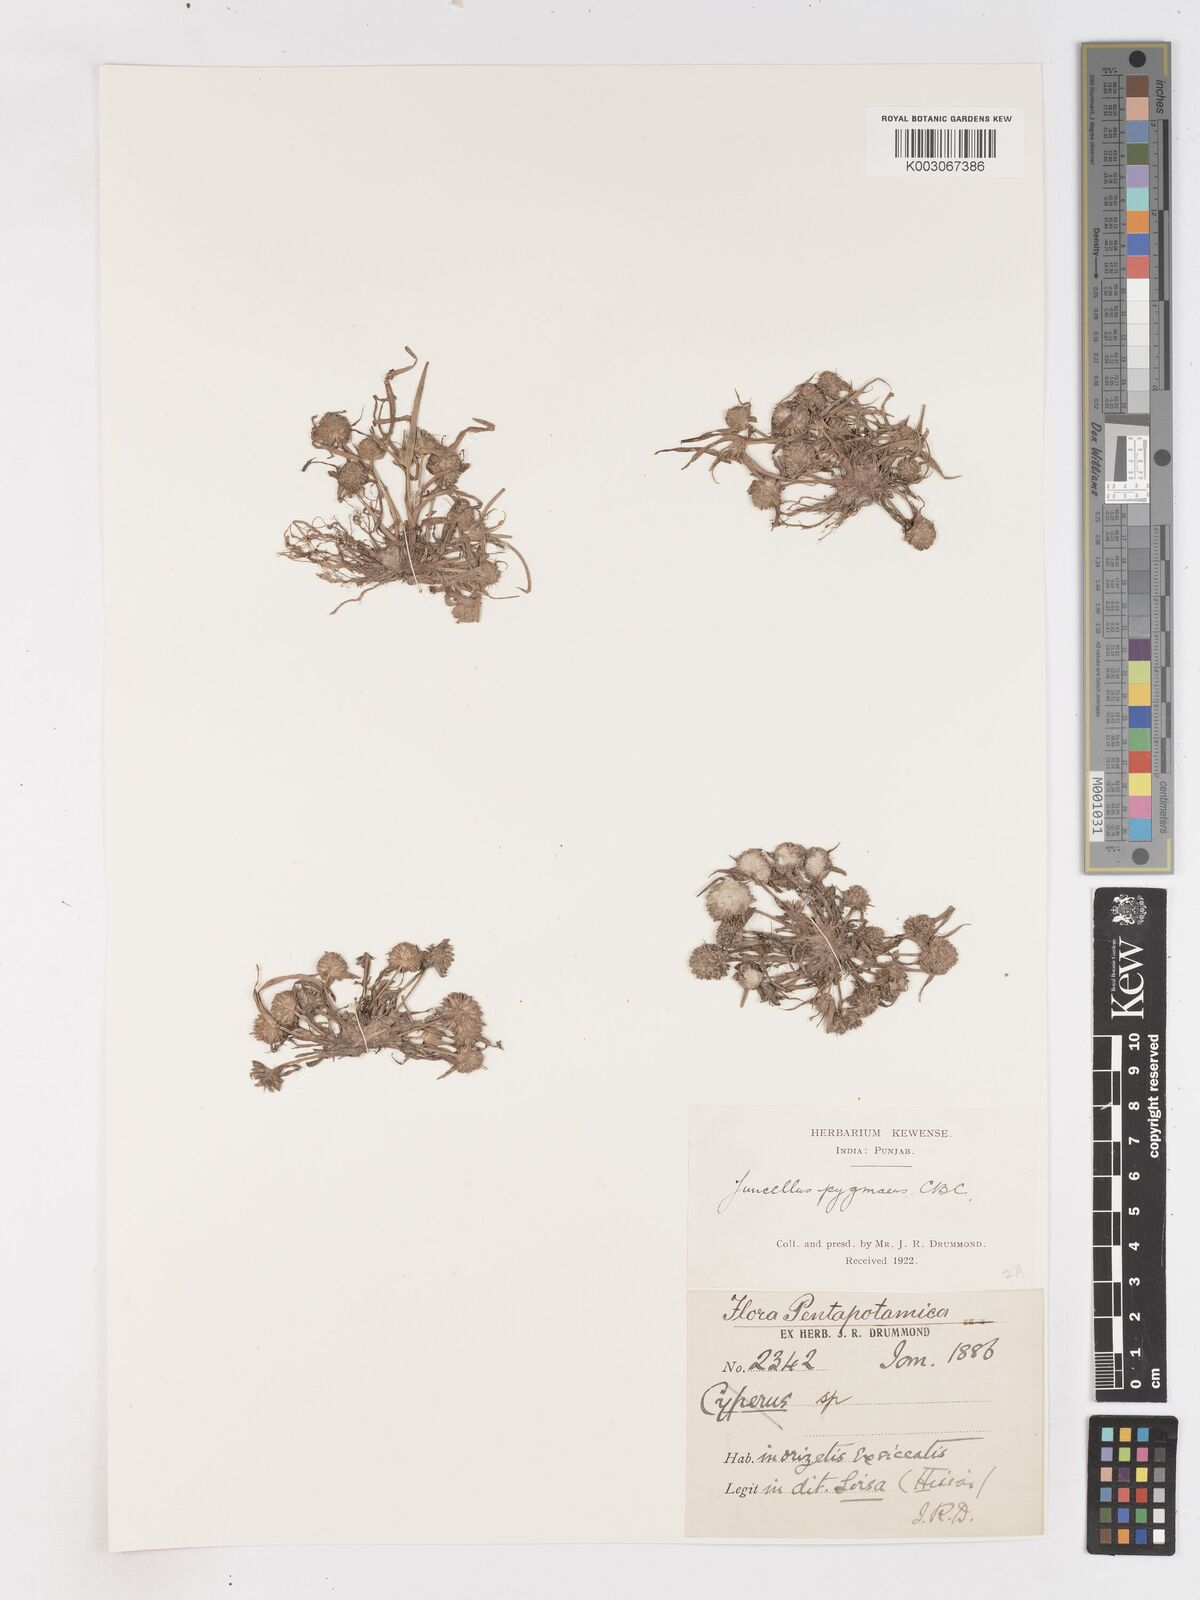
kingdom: Plantae
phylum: Tracheophyta
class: Liliopsida
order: Poales
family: Cyperaceae
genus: Cyperus
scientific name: Cyperus michelianus
